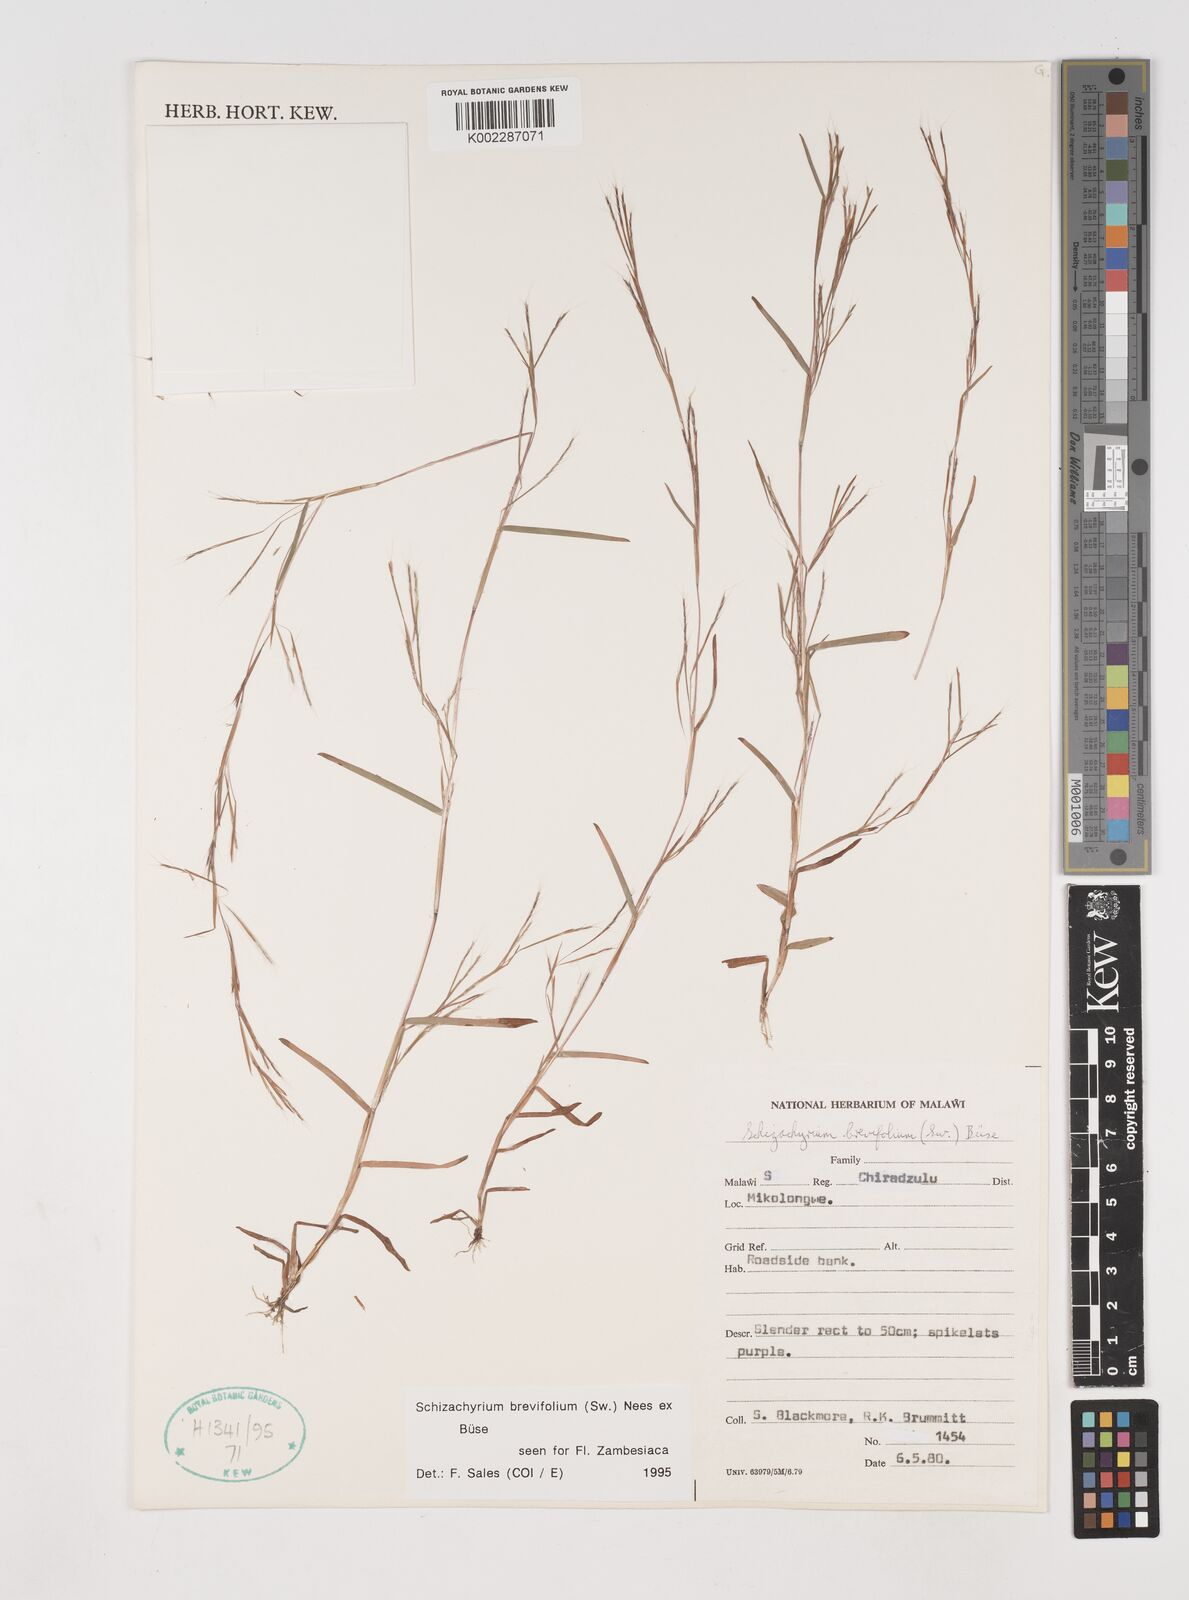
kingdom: Plantae
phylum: Tracheophyta
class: Liliopsida
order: Poales
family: Poaceae
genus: Schizachyrium
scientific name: Schizachyrium brevifolium
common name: Serillo dulce
